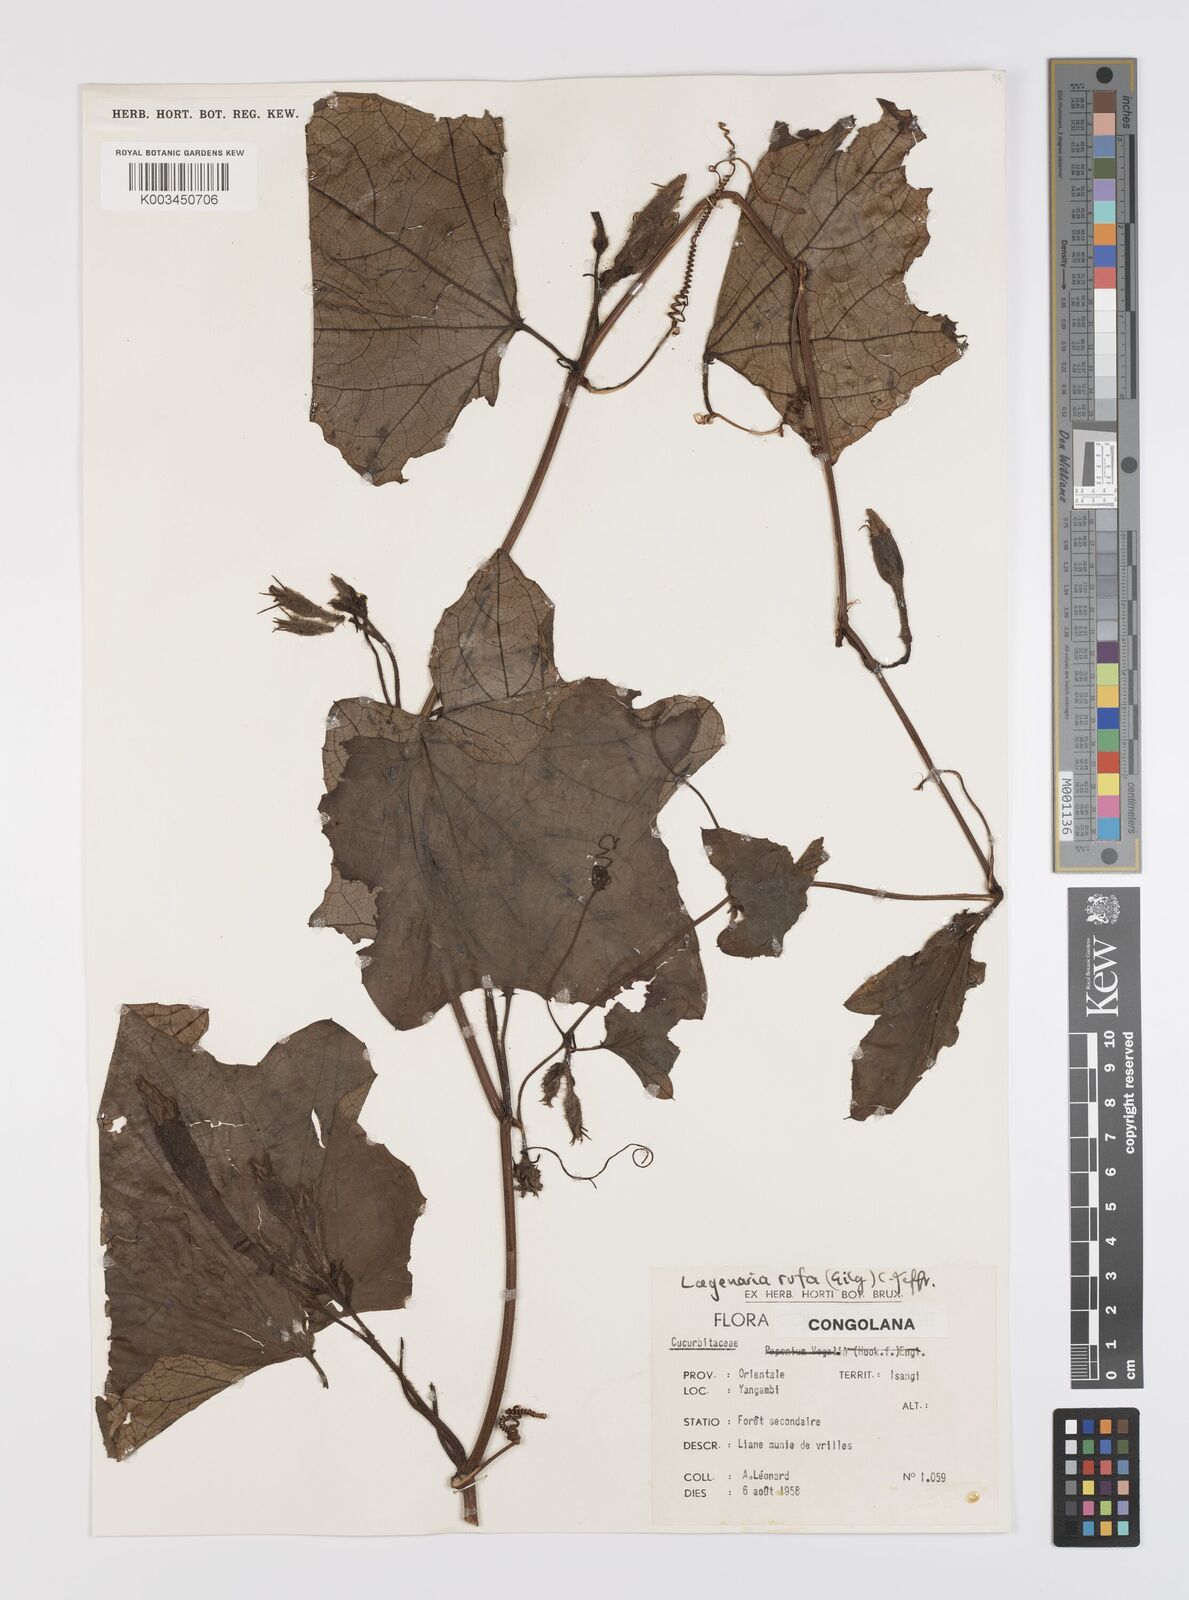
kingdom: Plantae
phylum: Tracheophyta
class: Magnoliopsida
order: Cucurbitales
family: Cucurbitaceae
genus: Lagenaria
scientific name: Lagenaria rufa
